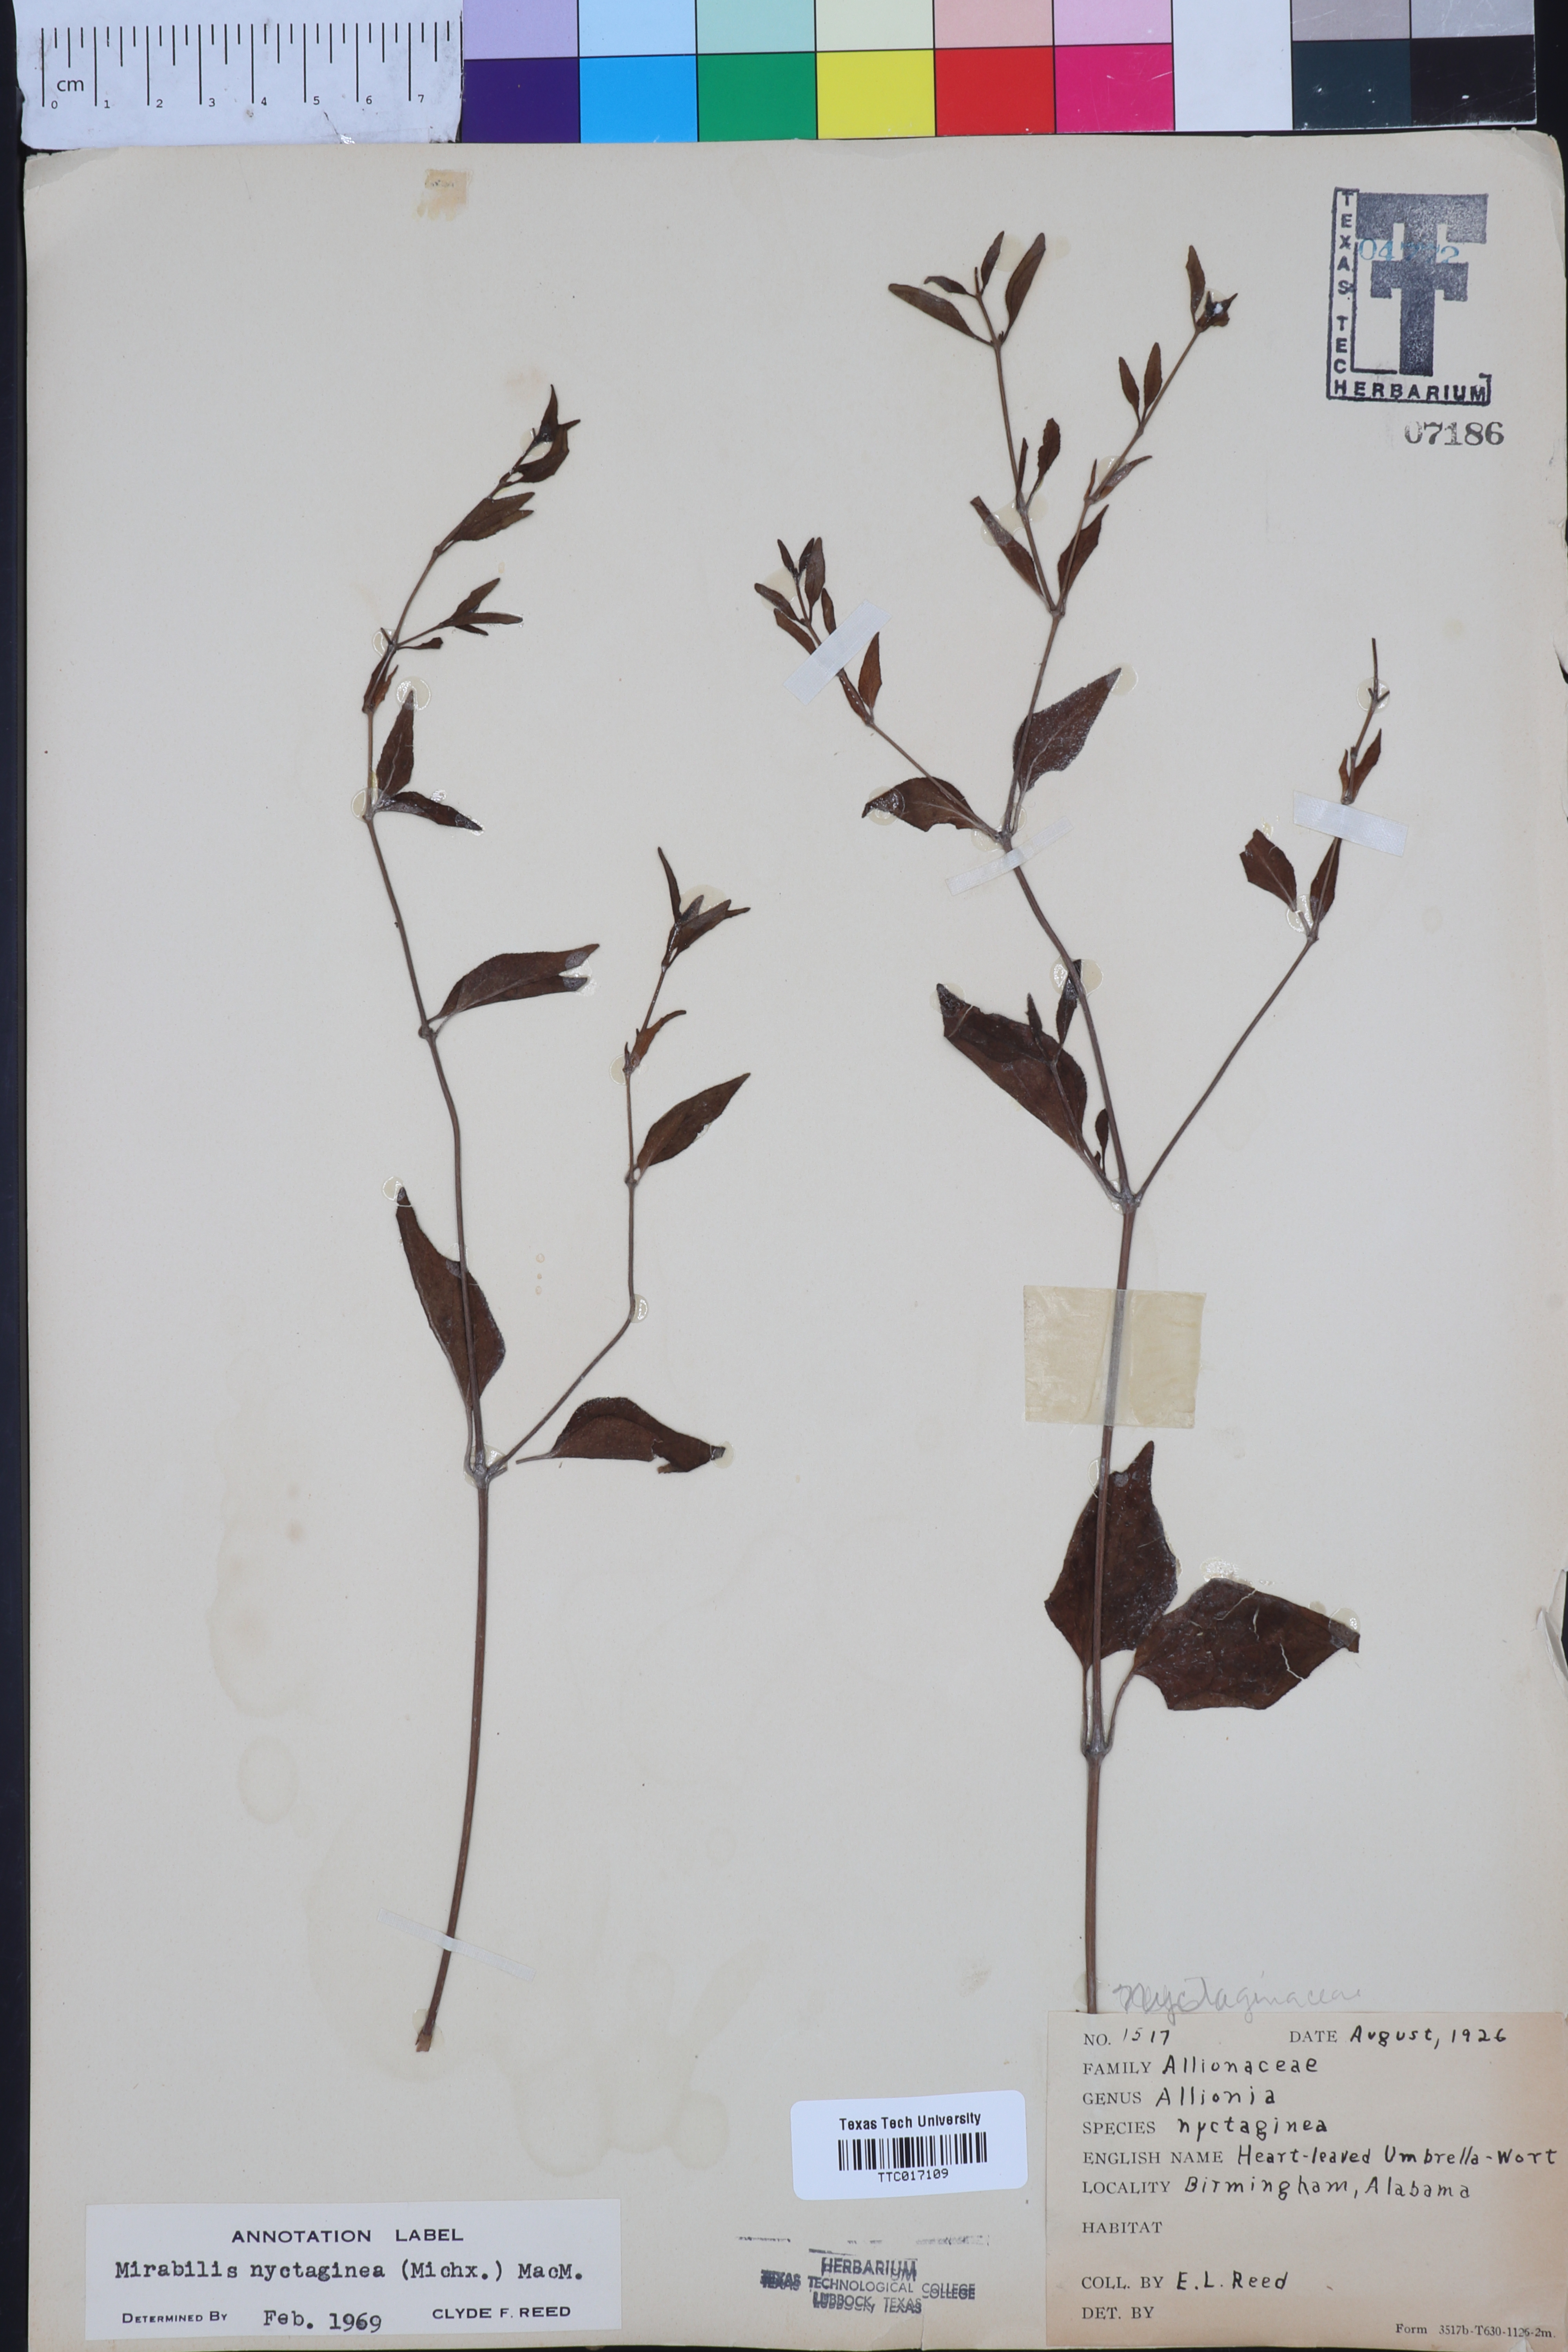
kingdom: Plantae
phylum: Tracheophyta
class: Magnoliopsida
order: Caryophyllales
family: Nyctaginaceae
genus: Mirabilis
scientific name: Mirabilis nyctaginea
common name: Umbrella wort
